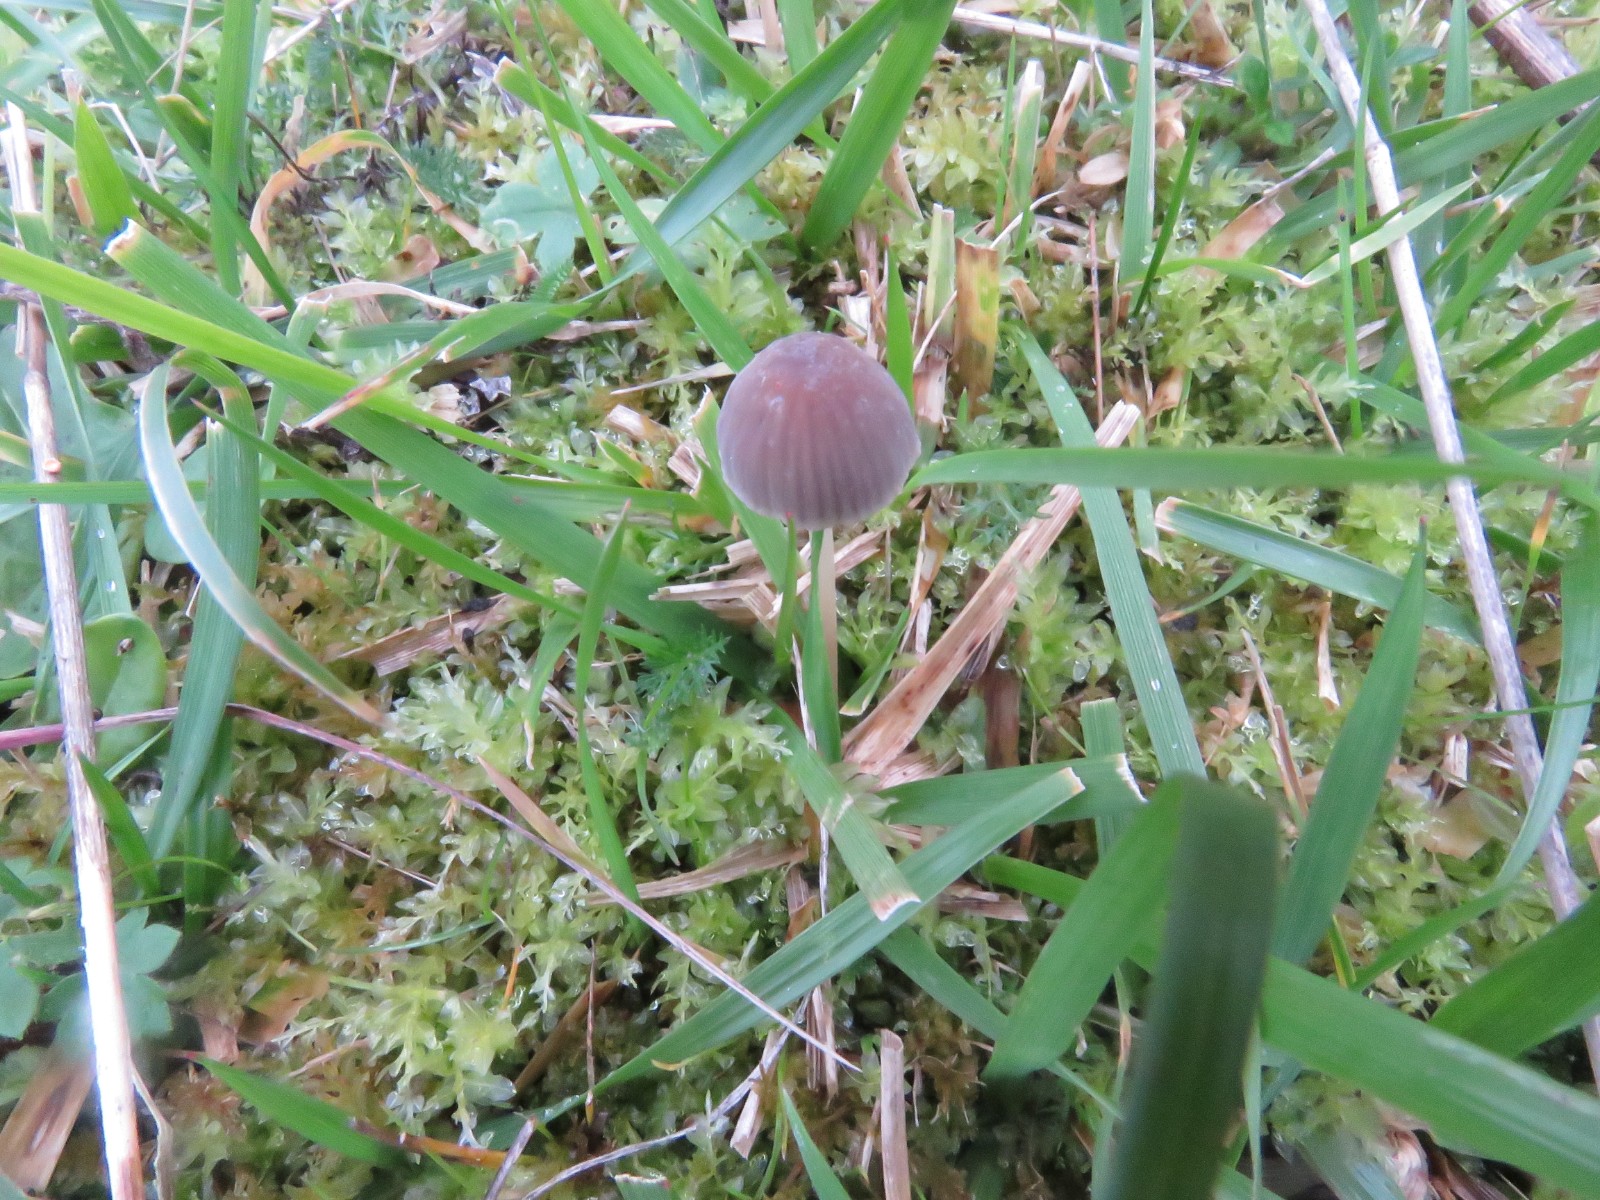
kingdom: Fungi
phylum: Basidiomycota
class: Agaricomycetes
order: Agaricales
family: Mycenaceae
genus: Mycena
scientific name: Mycena olivaceomarginata
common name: brunægget huesvamp
